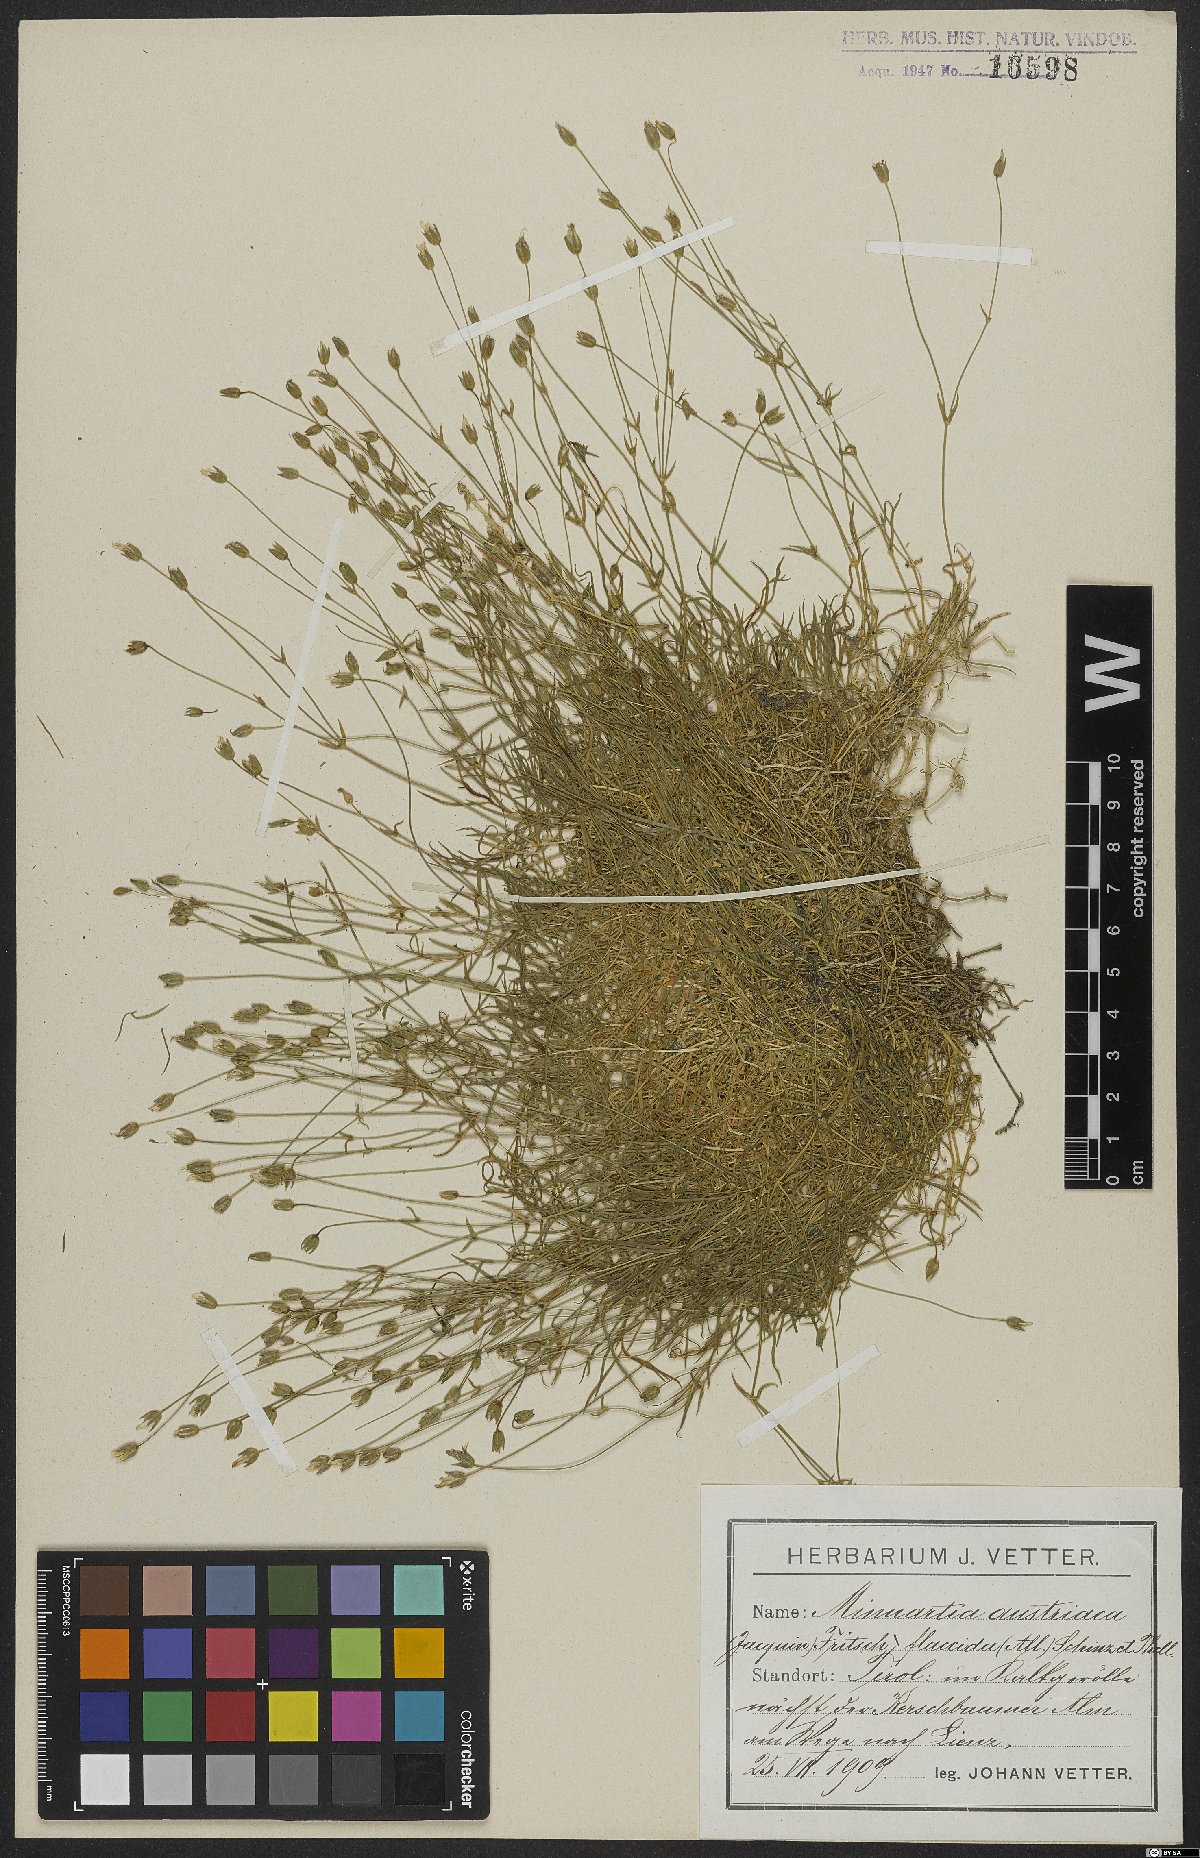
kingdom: Plantae
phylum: Tracheophyta
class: Magnoliopsida
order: Caryophyllales
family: Caryophyllaceae
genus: Sabulina
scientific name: Sabulina austriaca
